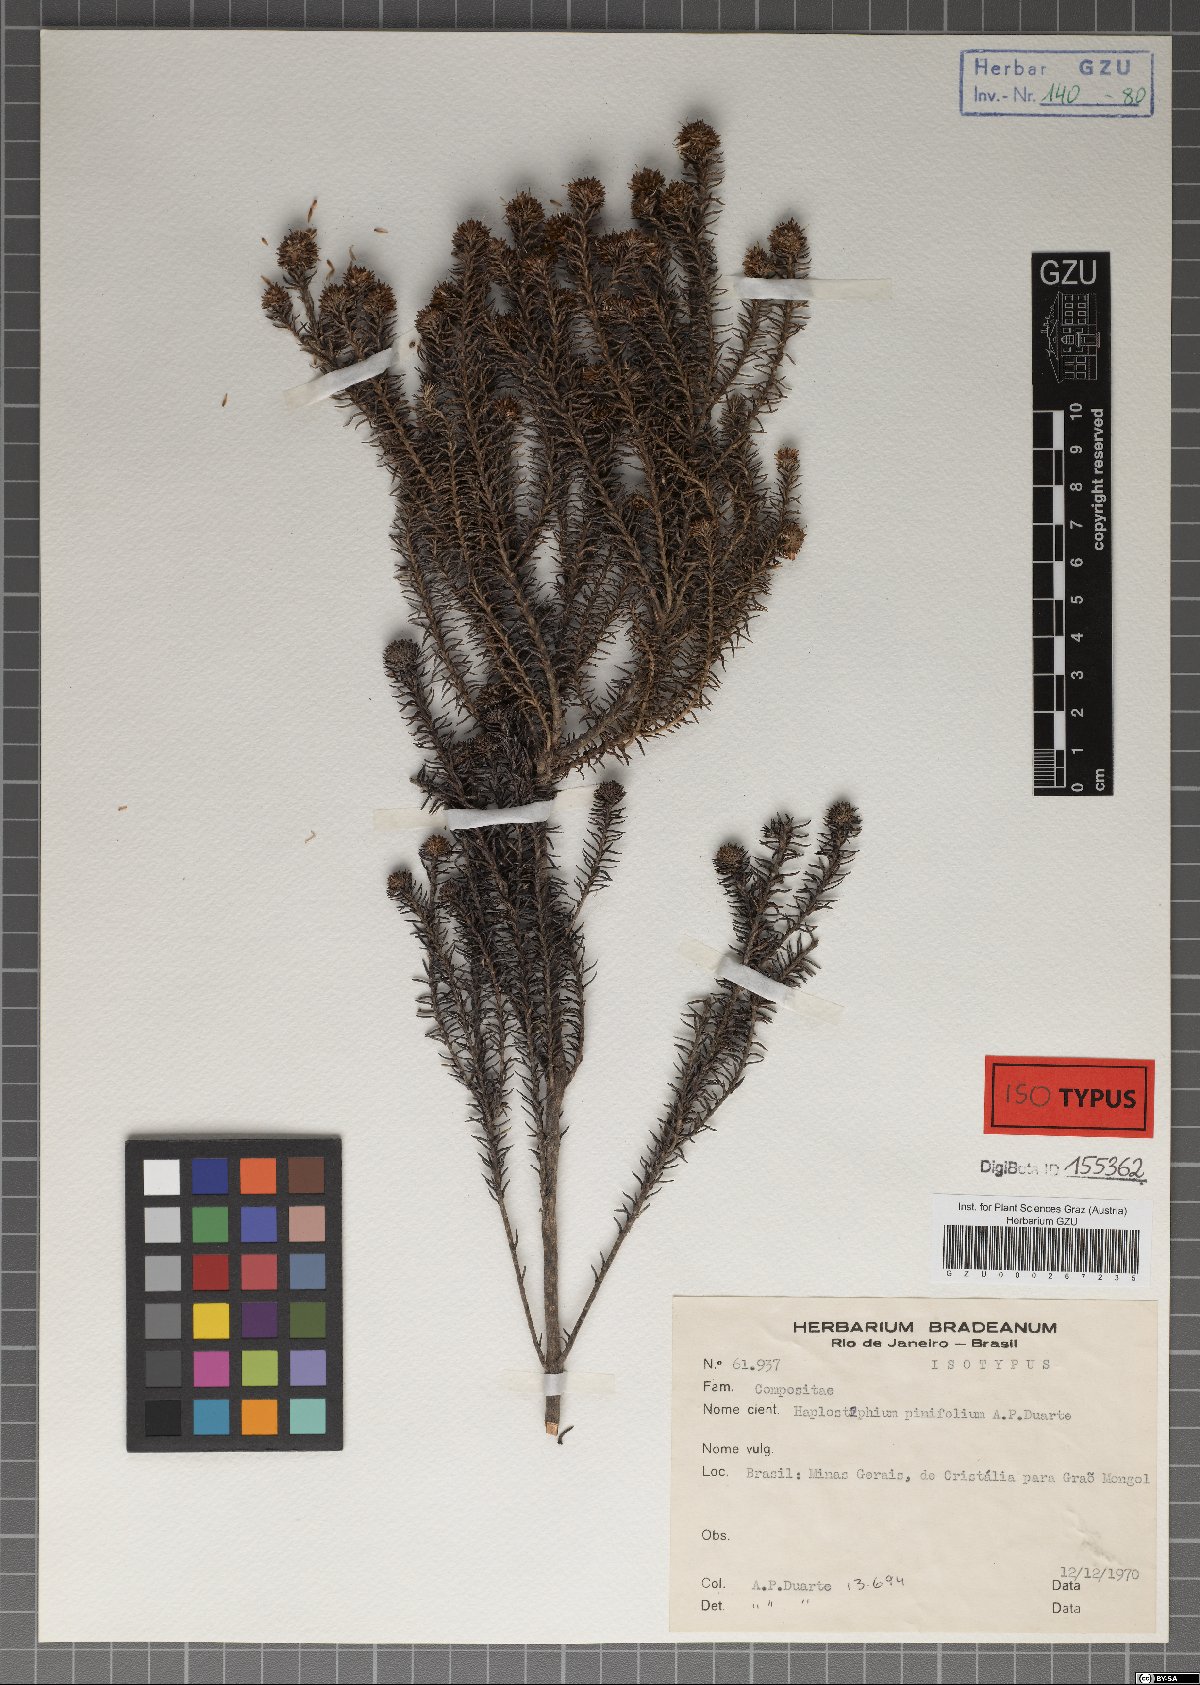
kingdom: Plantae
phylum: Tracheophyta
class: Magnoliopsida
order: Asterales
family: Asteraceae
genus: Lychnophora
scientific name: Lychnophora passerina
